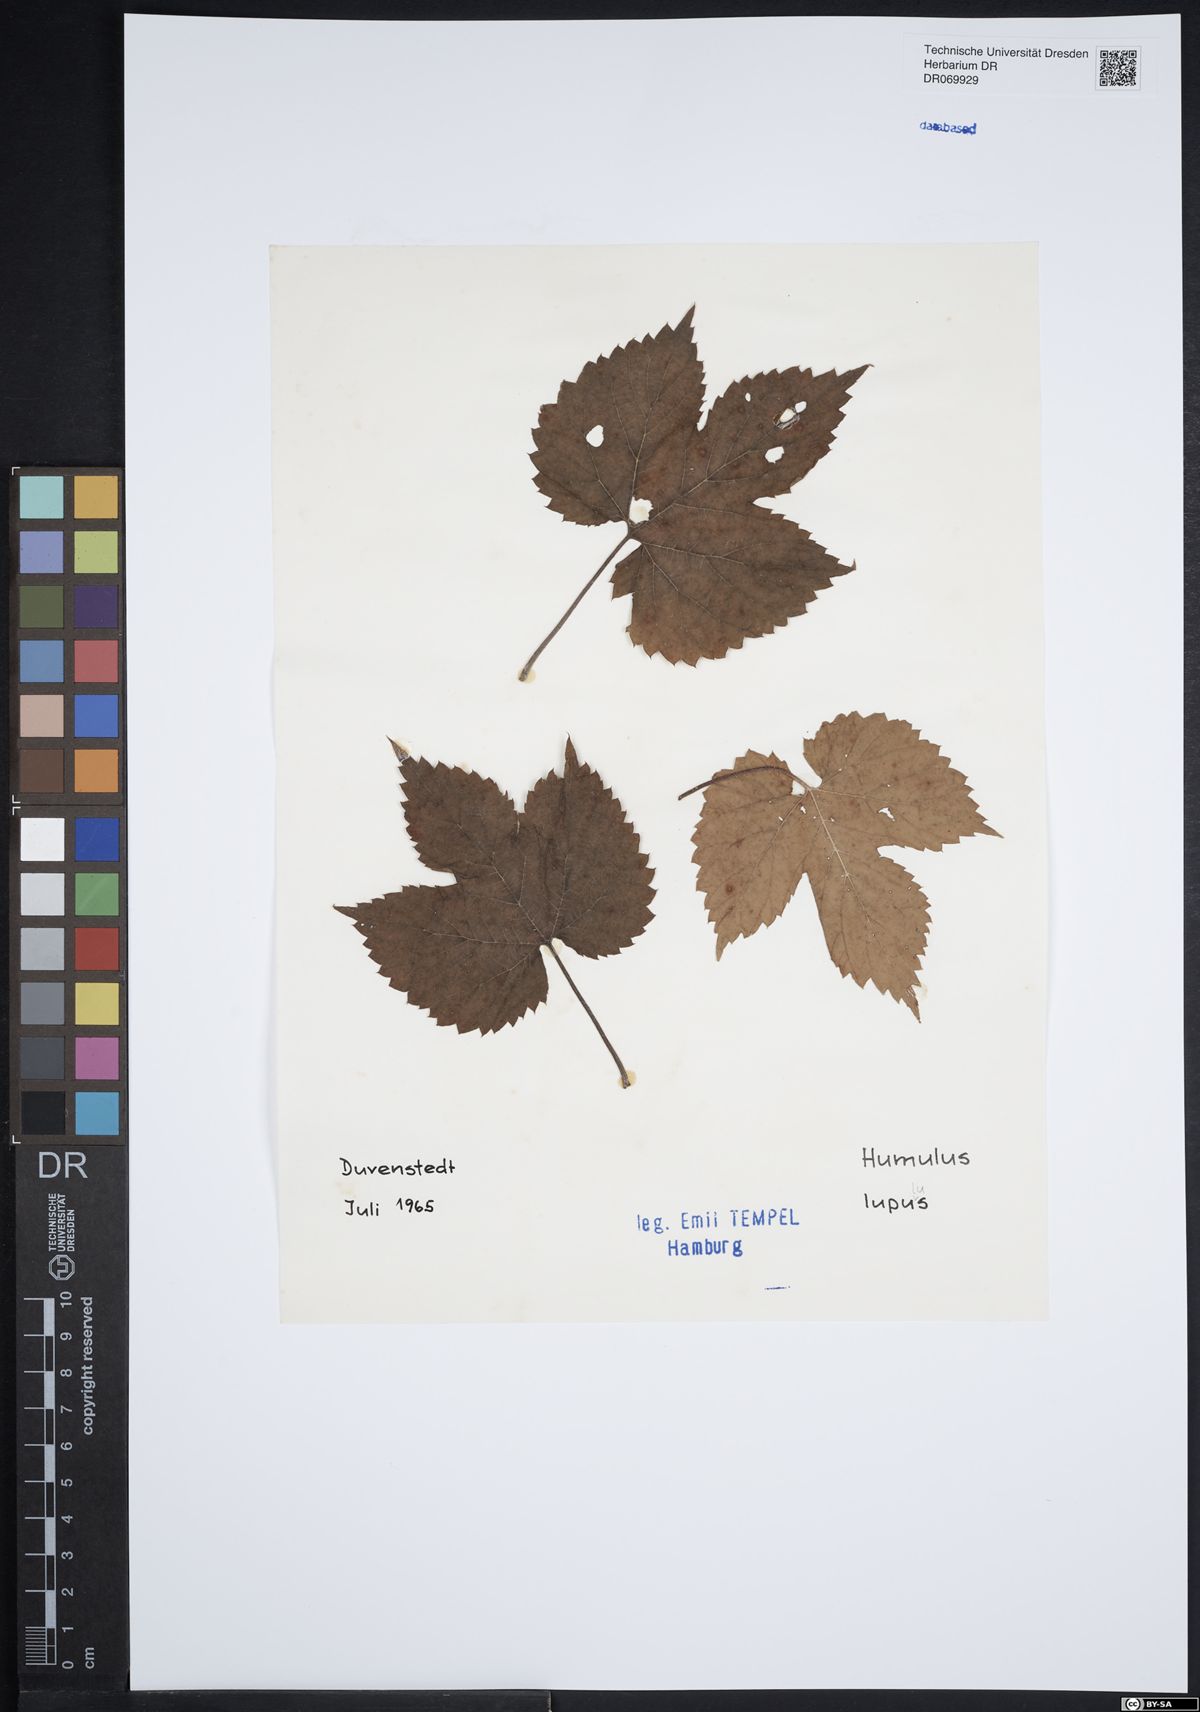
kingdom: Plantae
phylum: Tracheophyta
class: Magnoliopsida
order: Rosales
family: Cannabaceae
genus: Humulus
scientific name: Humulus lupulus
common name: Hop
